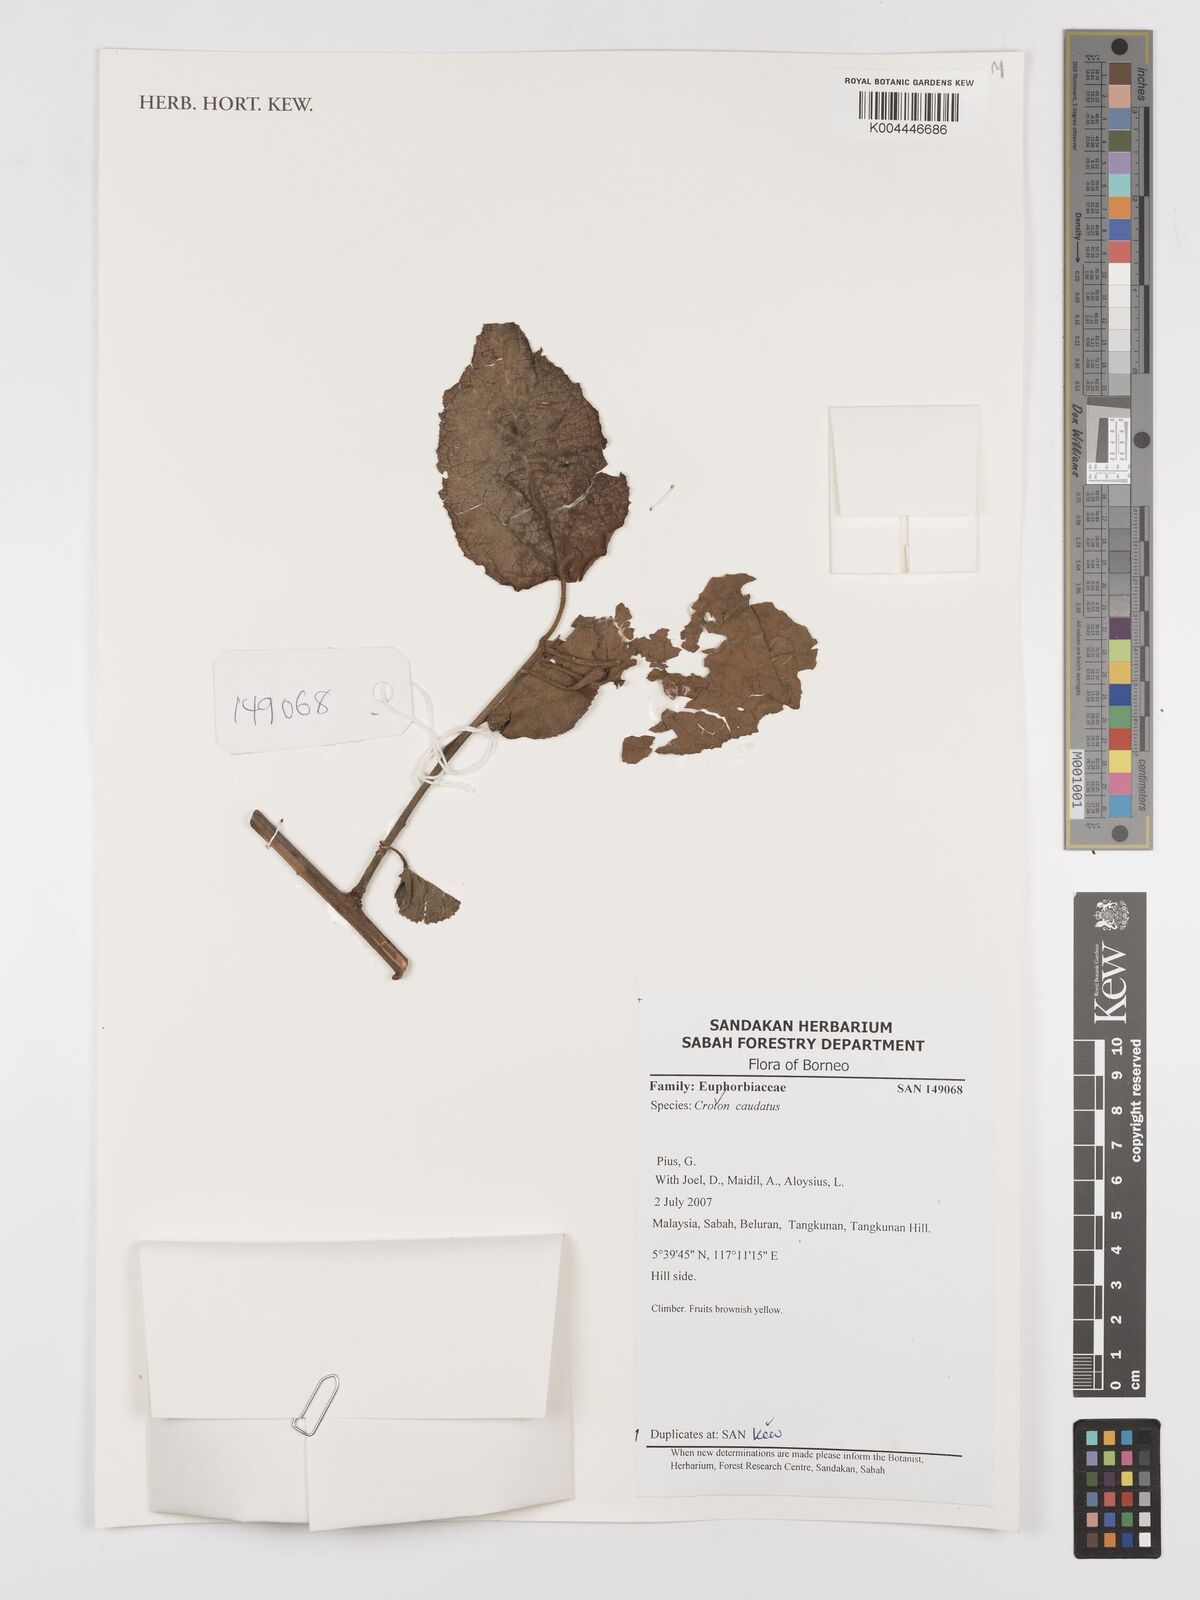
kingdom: Plantae
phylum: Tracheophyta
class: Magnoliopsida
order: Malpighiales
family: Euphorbiaceae
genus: Croton
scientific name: Croton caudatus
